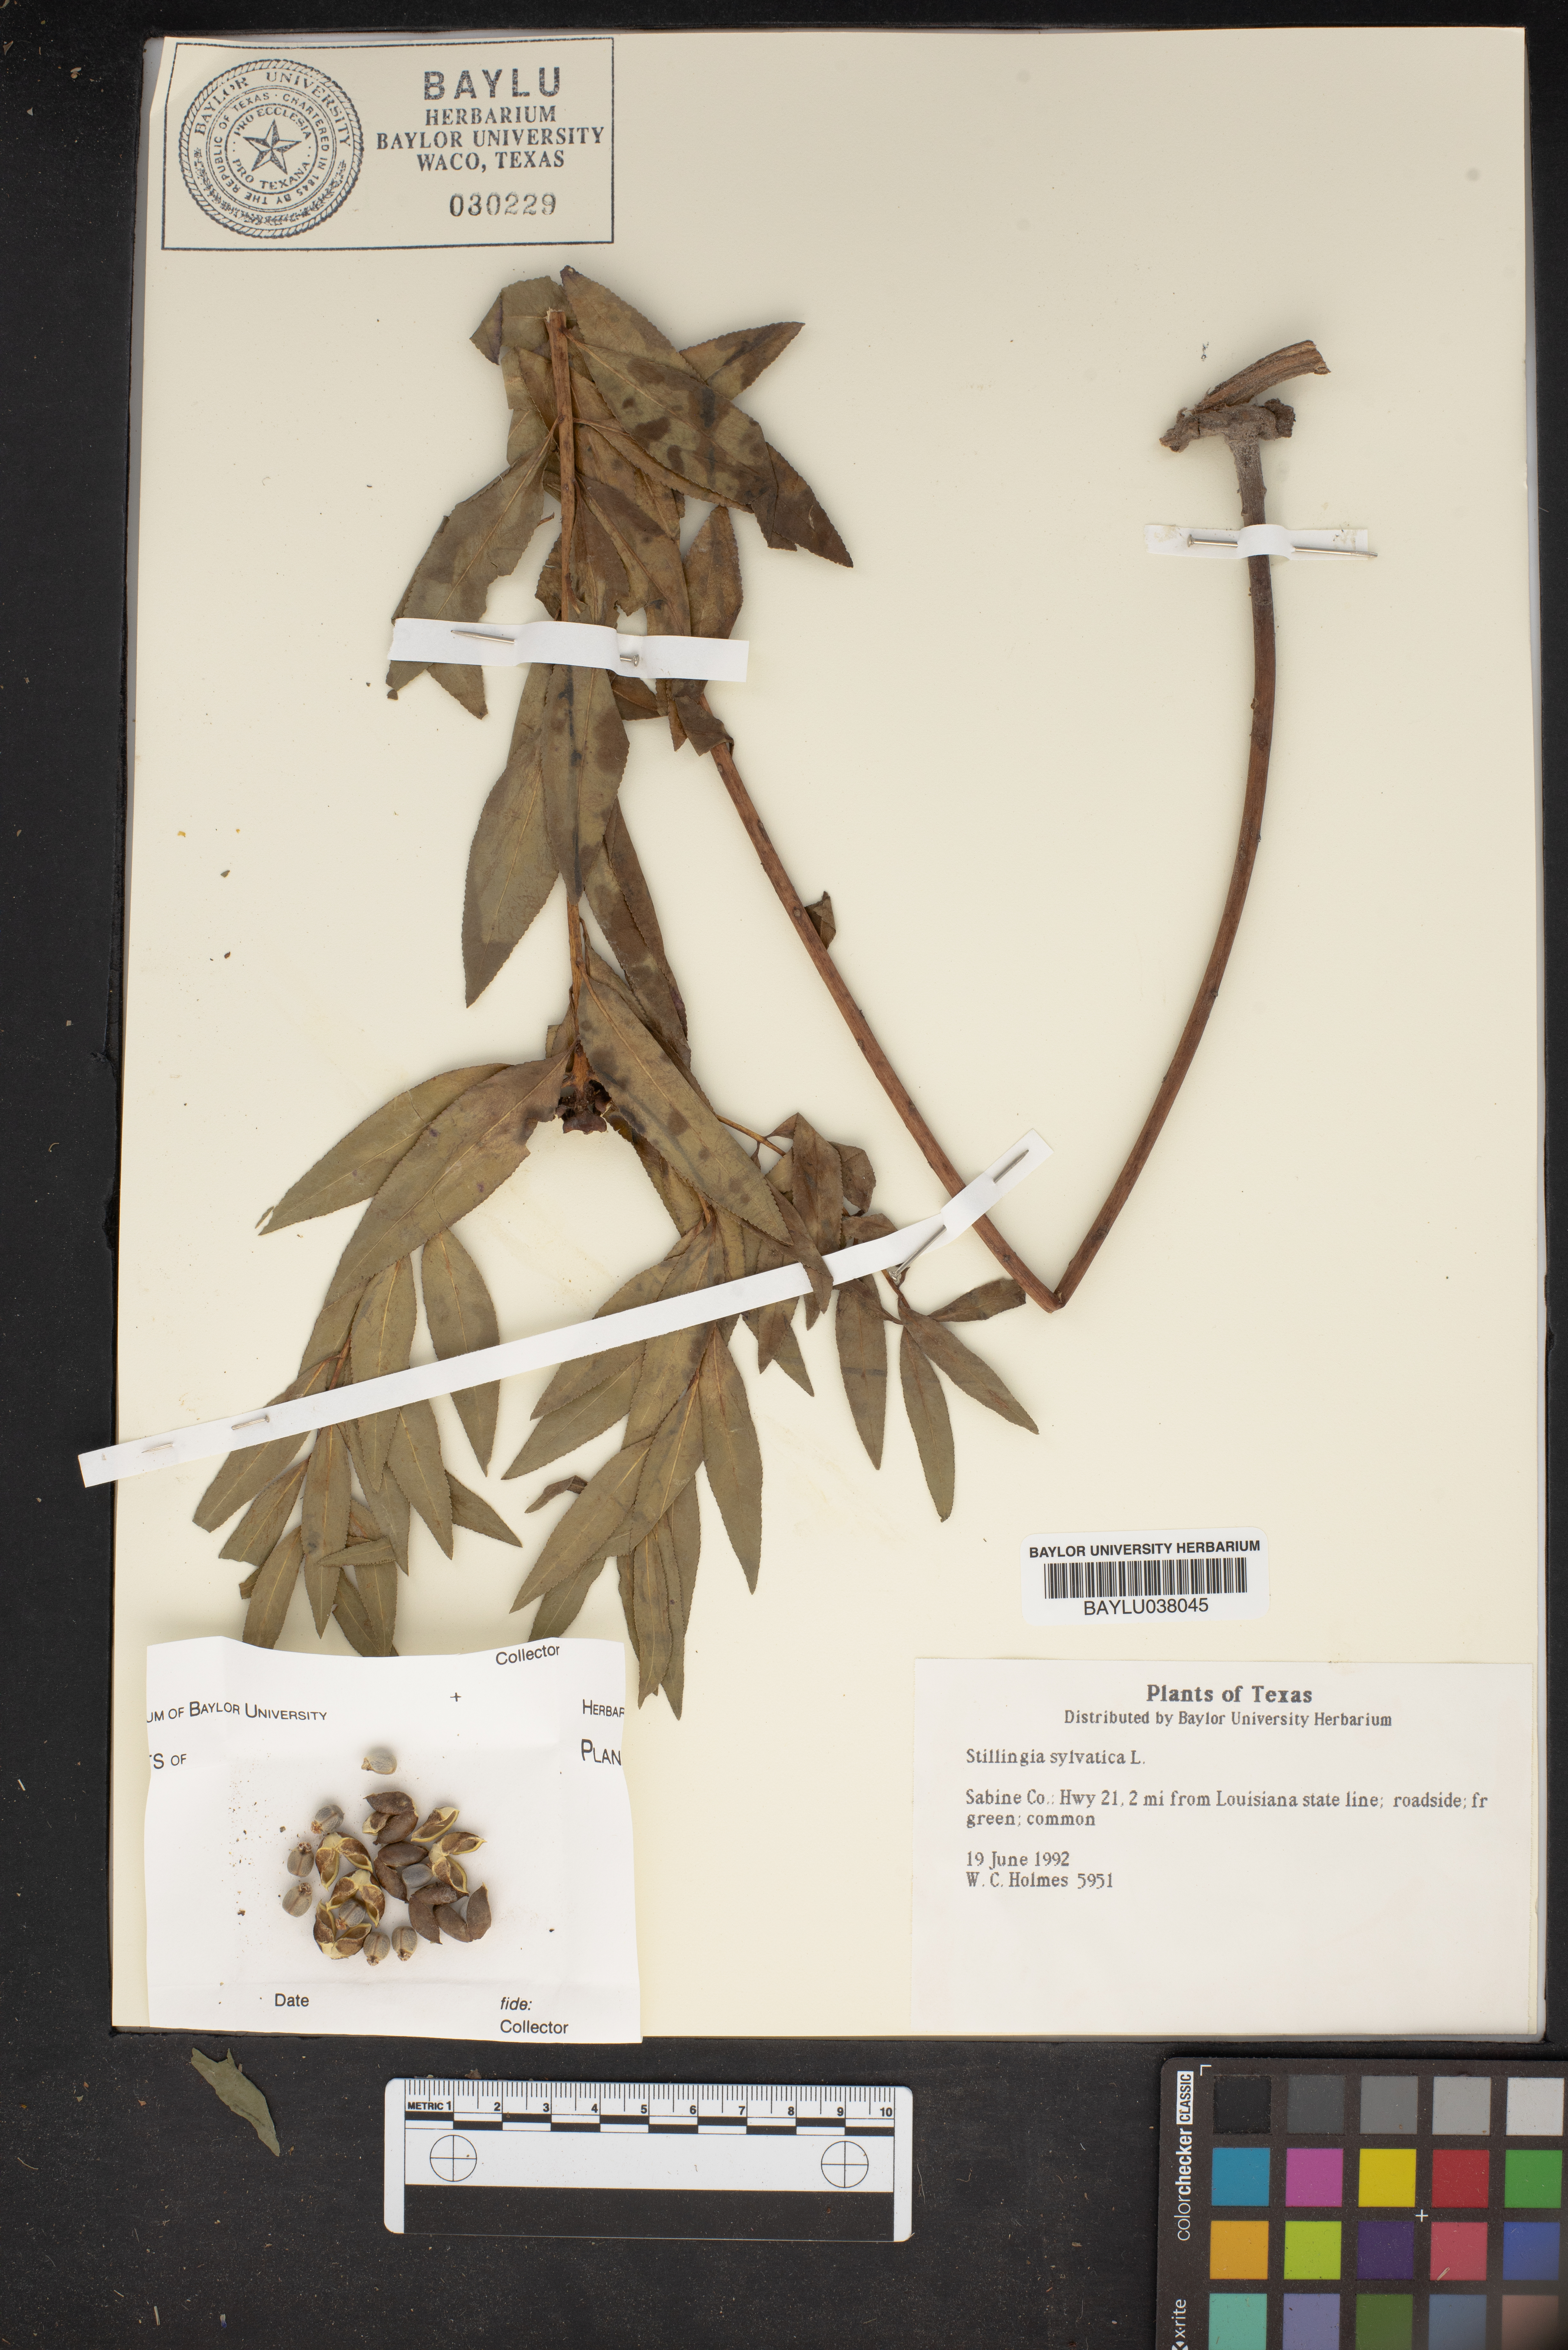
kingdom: Plantae
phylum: Tracheophyta
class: Magnoliopsida
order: Malpighiales
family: Euphorbiaceae
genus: Stillingia
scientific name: Stillingia sylvatica
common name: Queen's-delight
